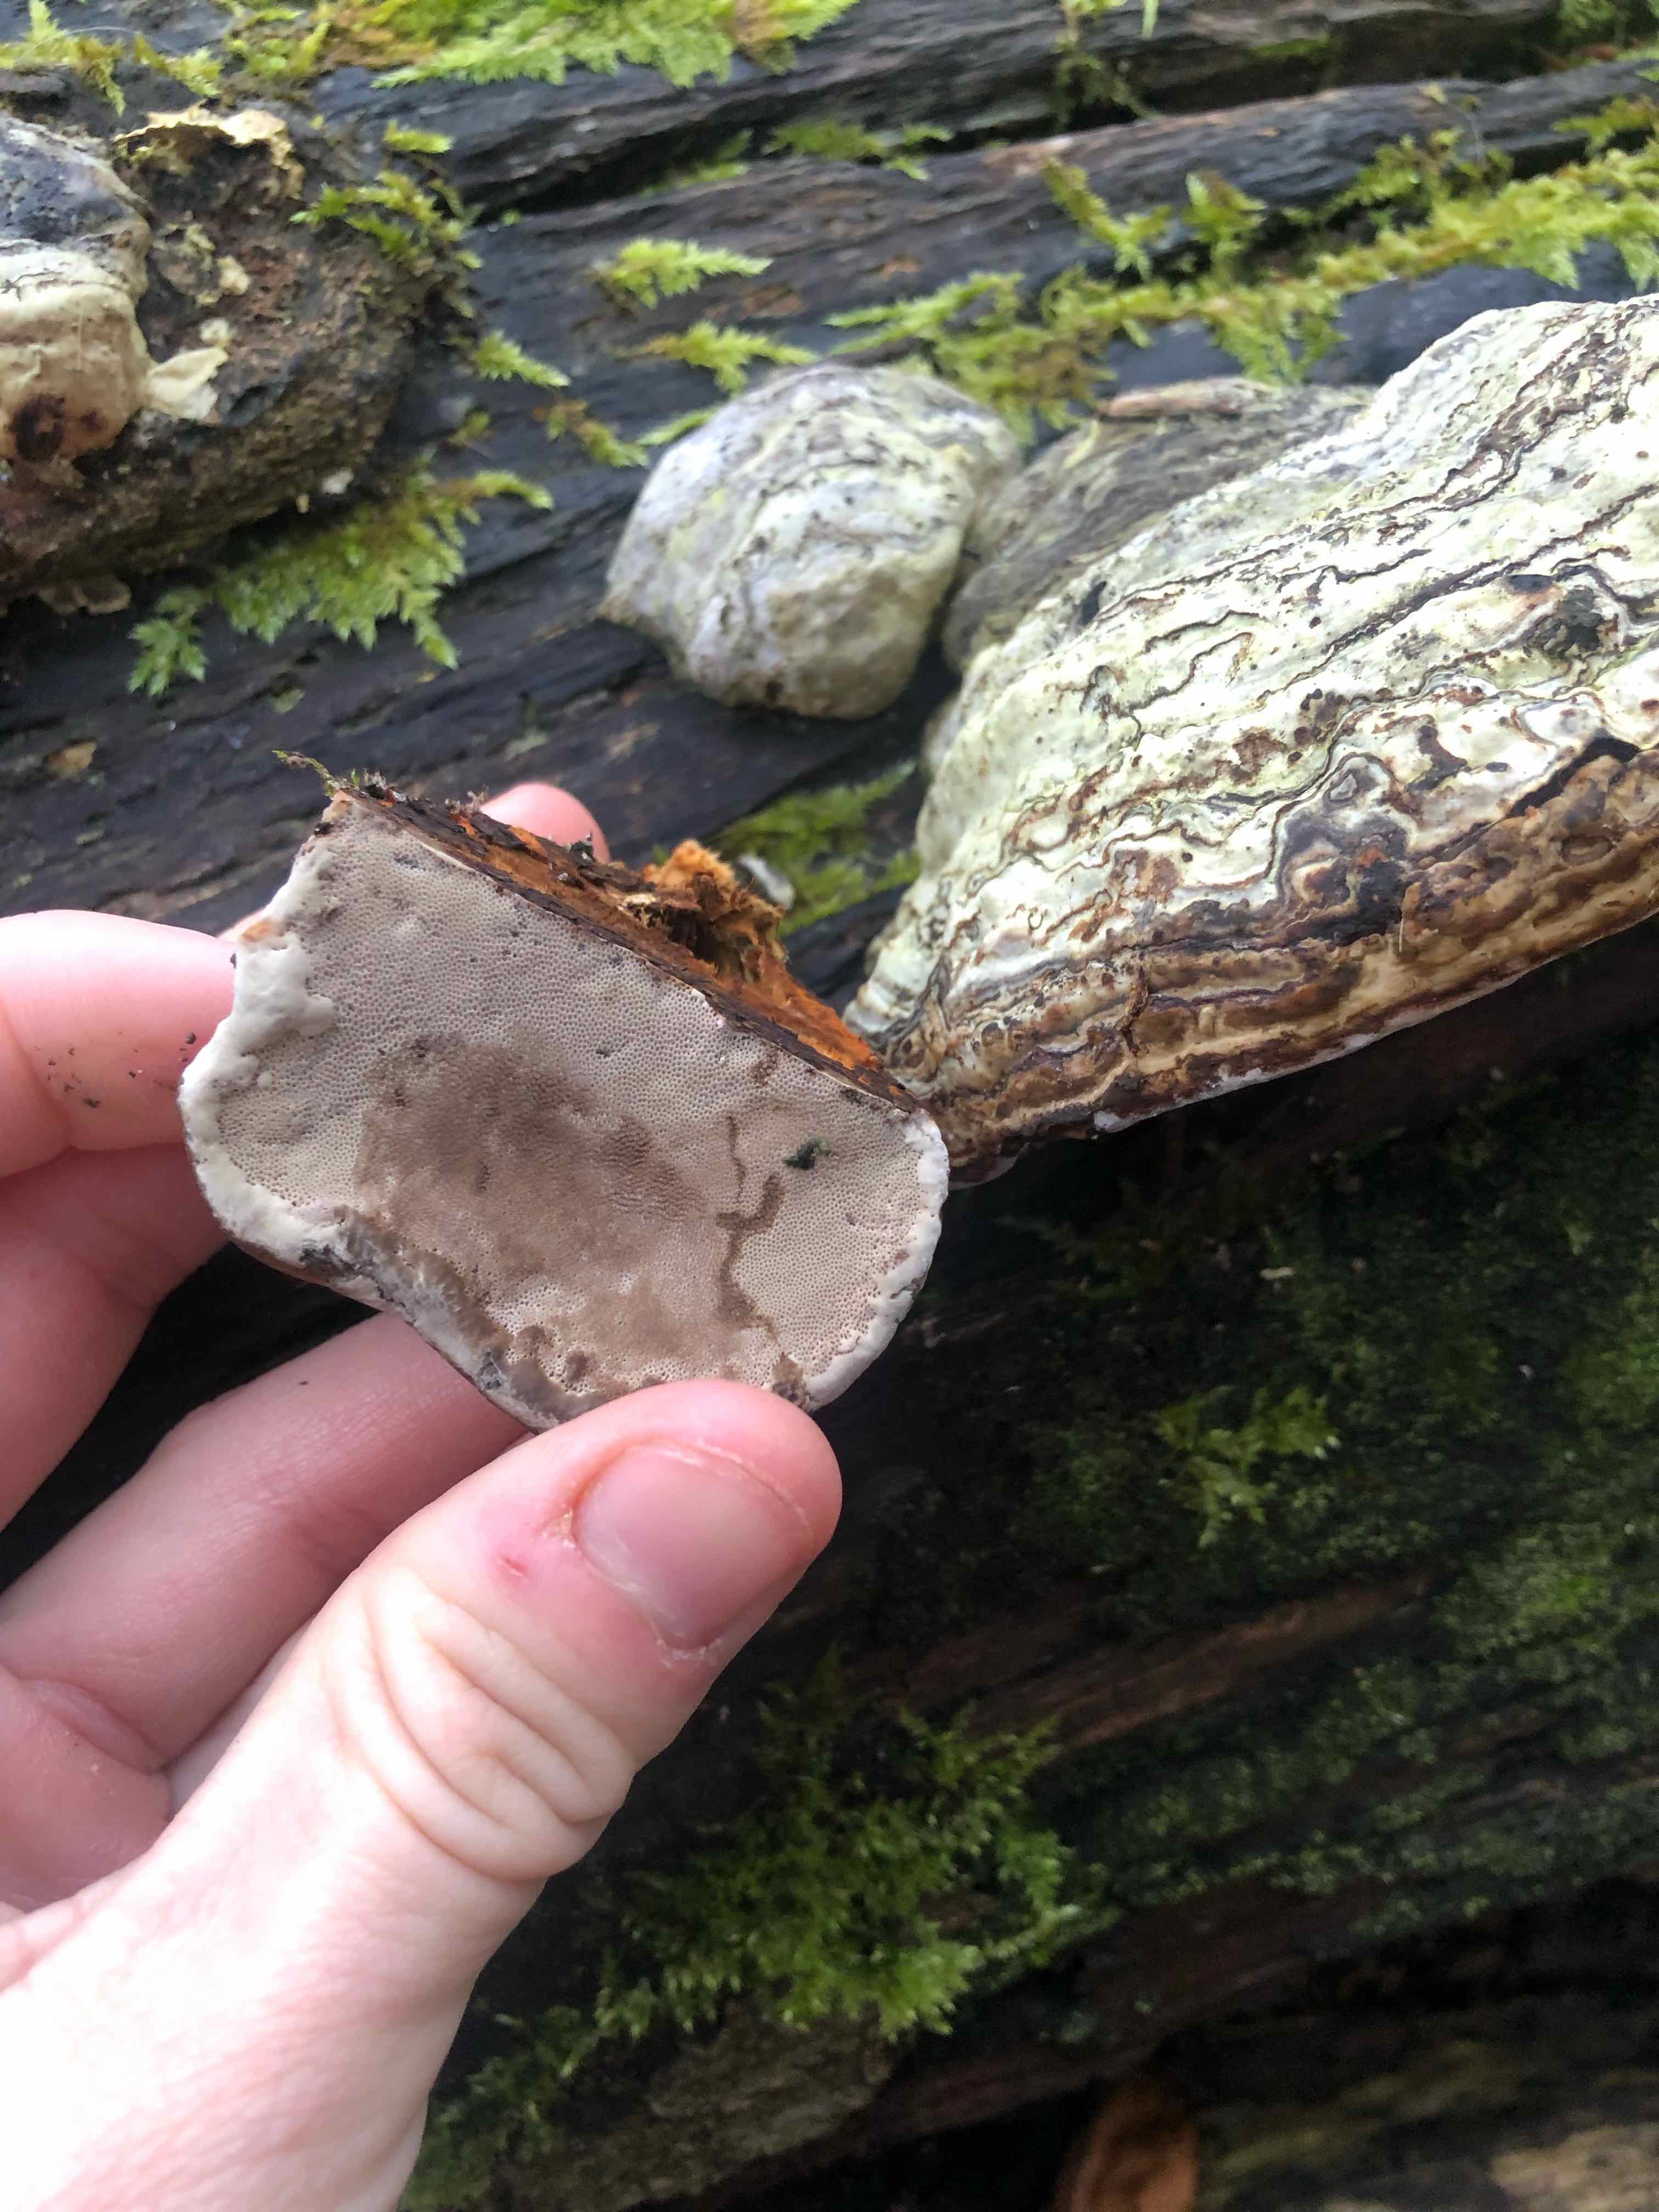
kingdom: Fungi
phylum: Basidiomycota
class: Agaricomycetes
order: Polyporales
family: Polyporaceae
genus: Fomes
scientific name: Fomes fomentarius
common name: tøndersvamp
